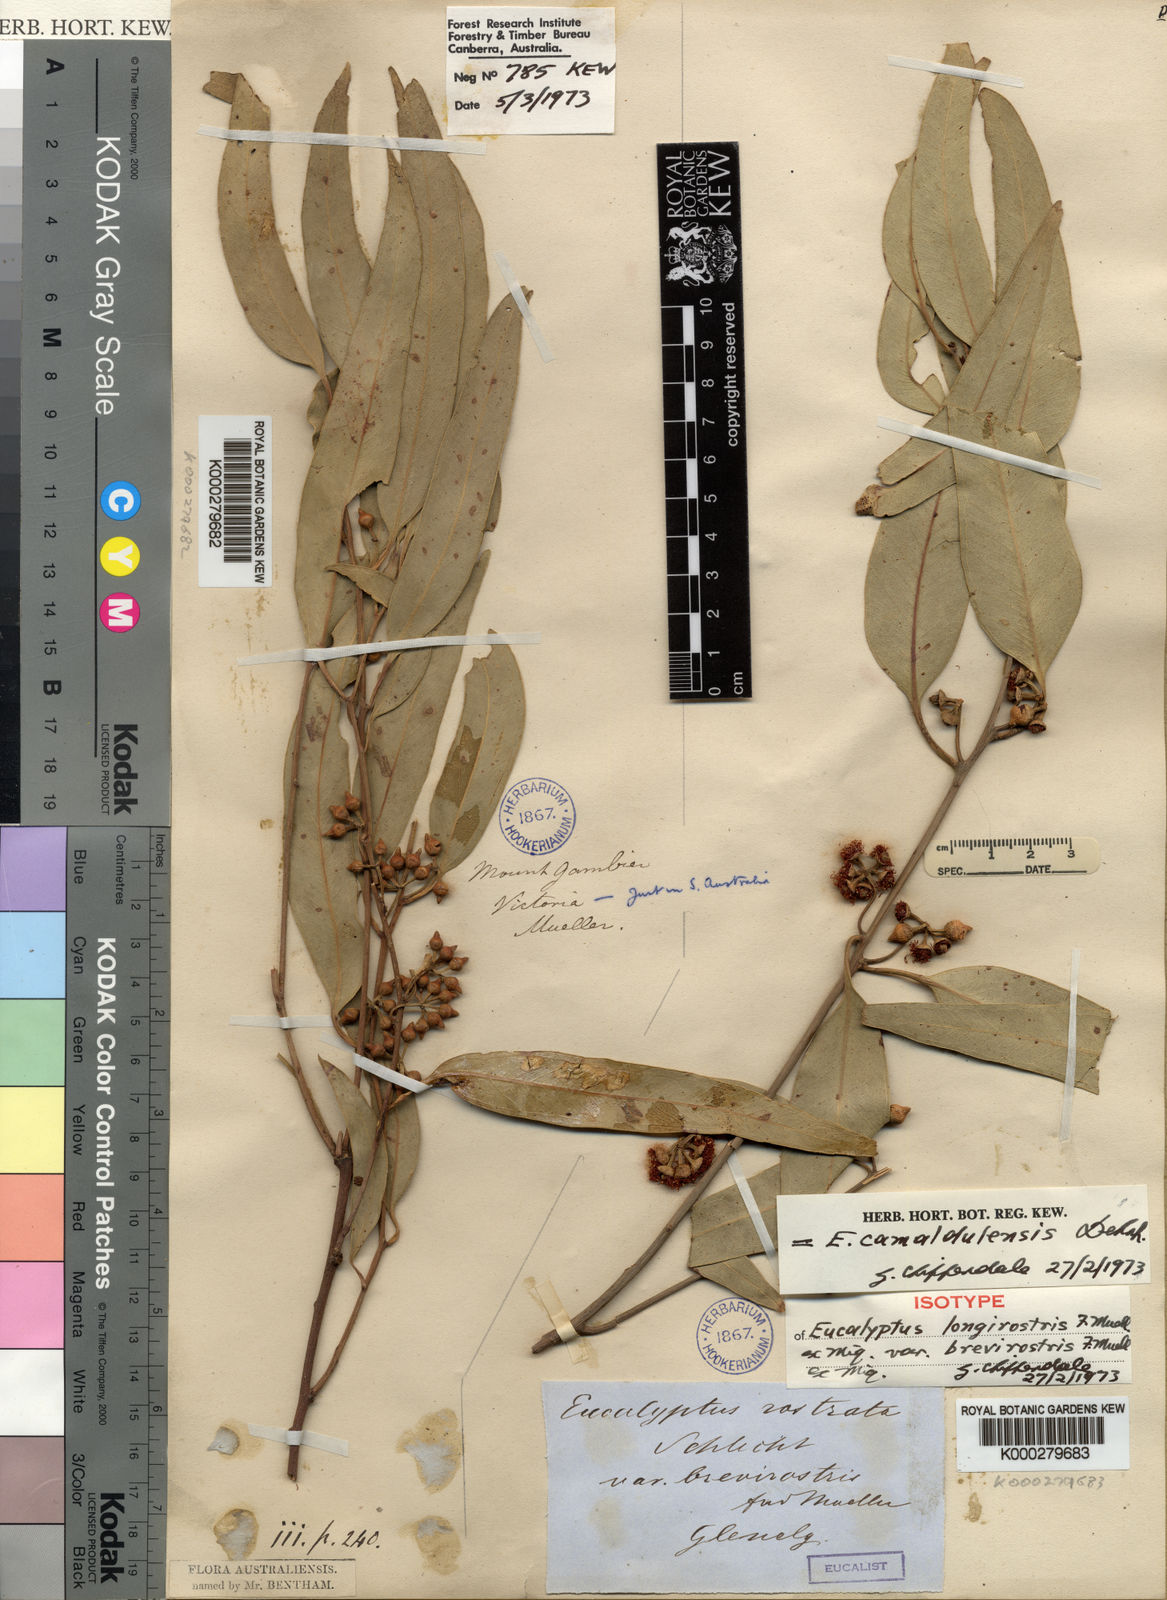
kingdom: Plantae
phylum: Tracheophyta
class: Magnoliopsida
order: Myrtales
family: Myrtaceae
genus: Eucalyptus
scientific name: Eucalyptus camaldulensis
